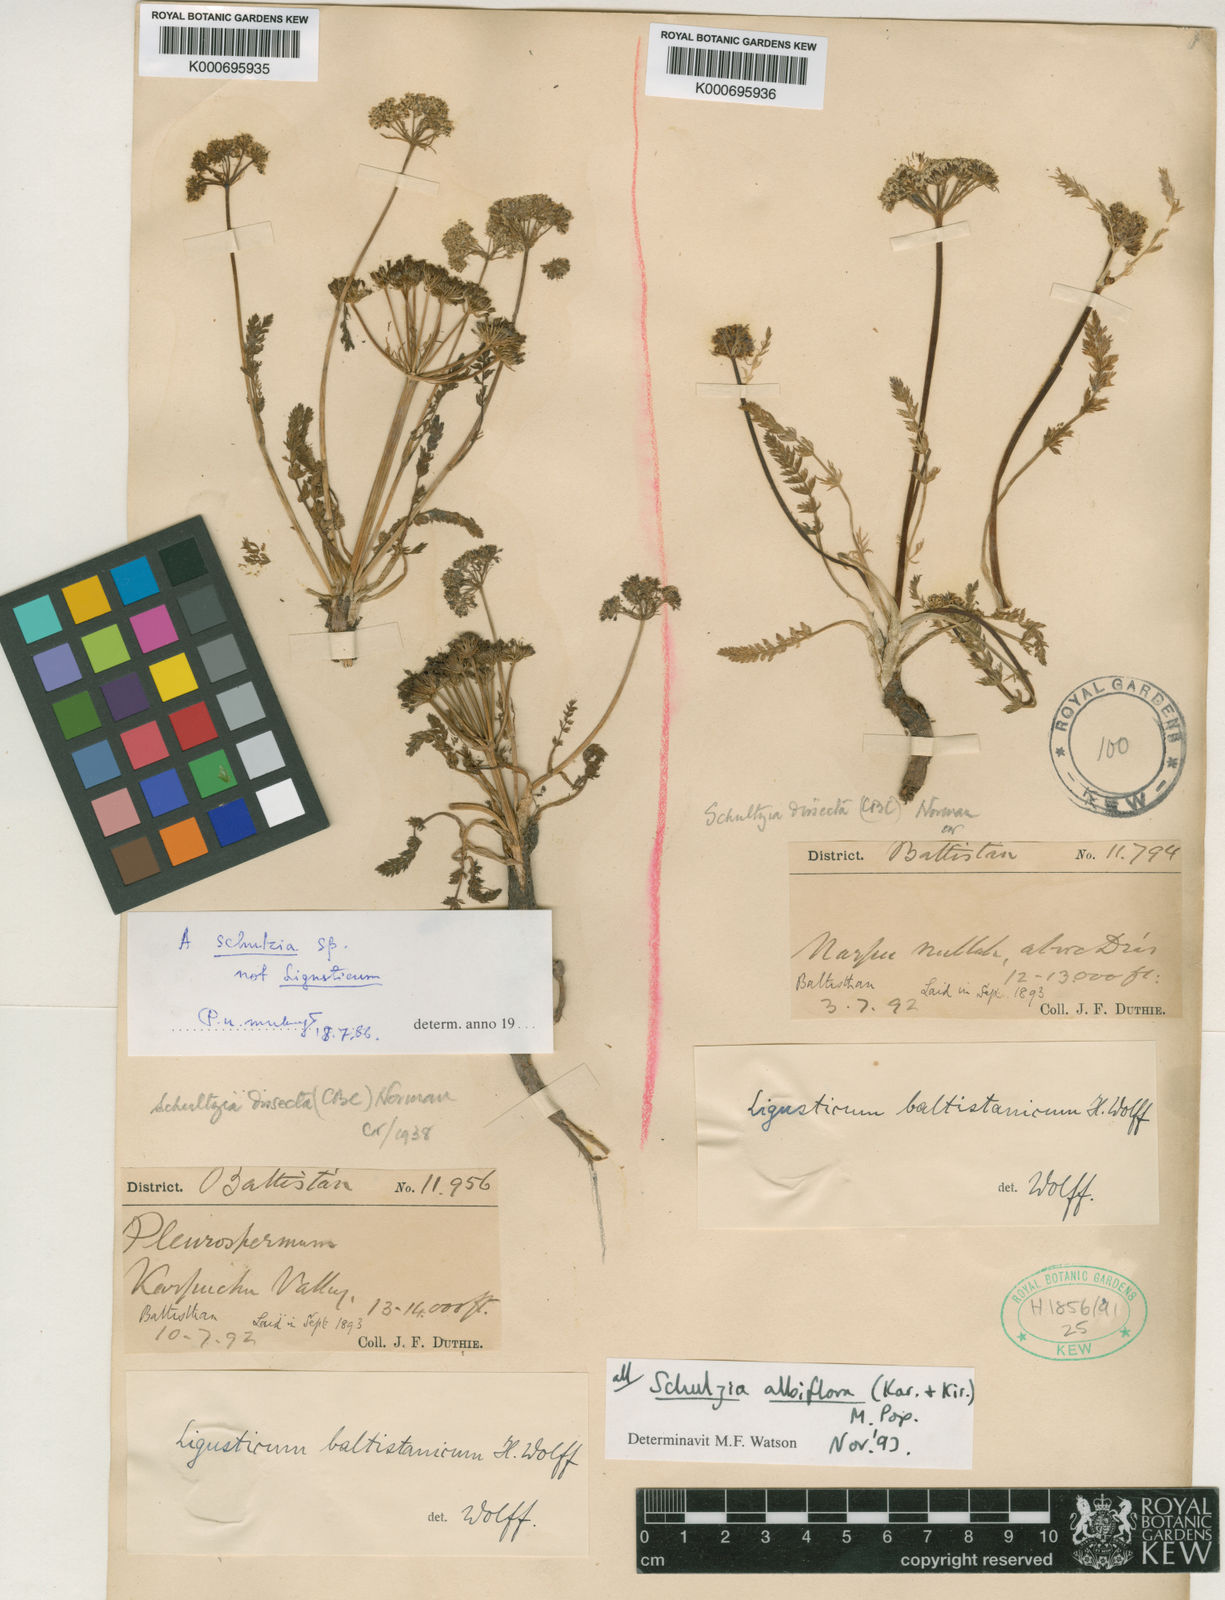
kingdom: Plantae
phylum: Tracheophyta
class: Magnoliopsida
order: Apiales
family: Apiaceae
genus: Schulzia
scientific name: Schulzia
